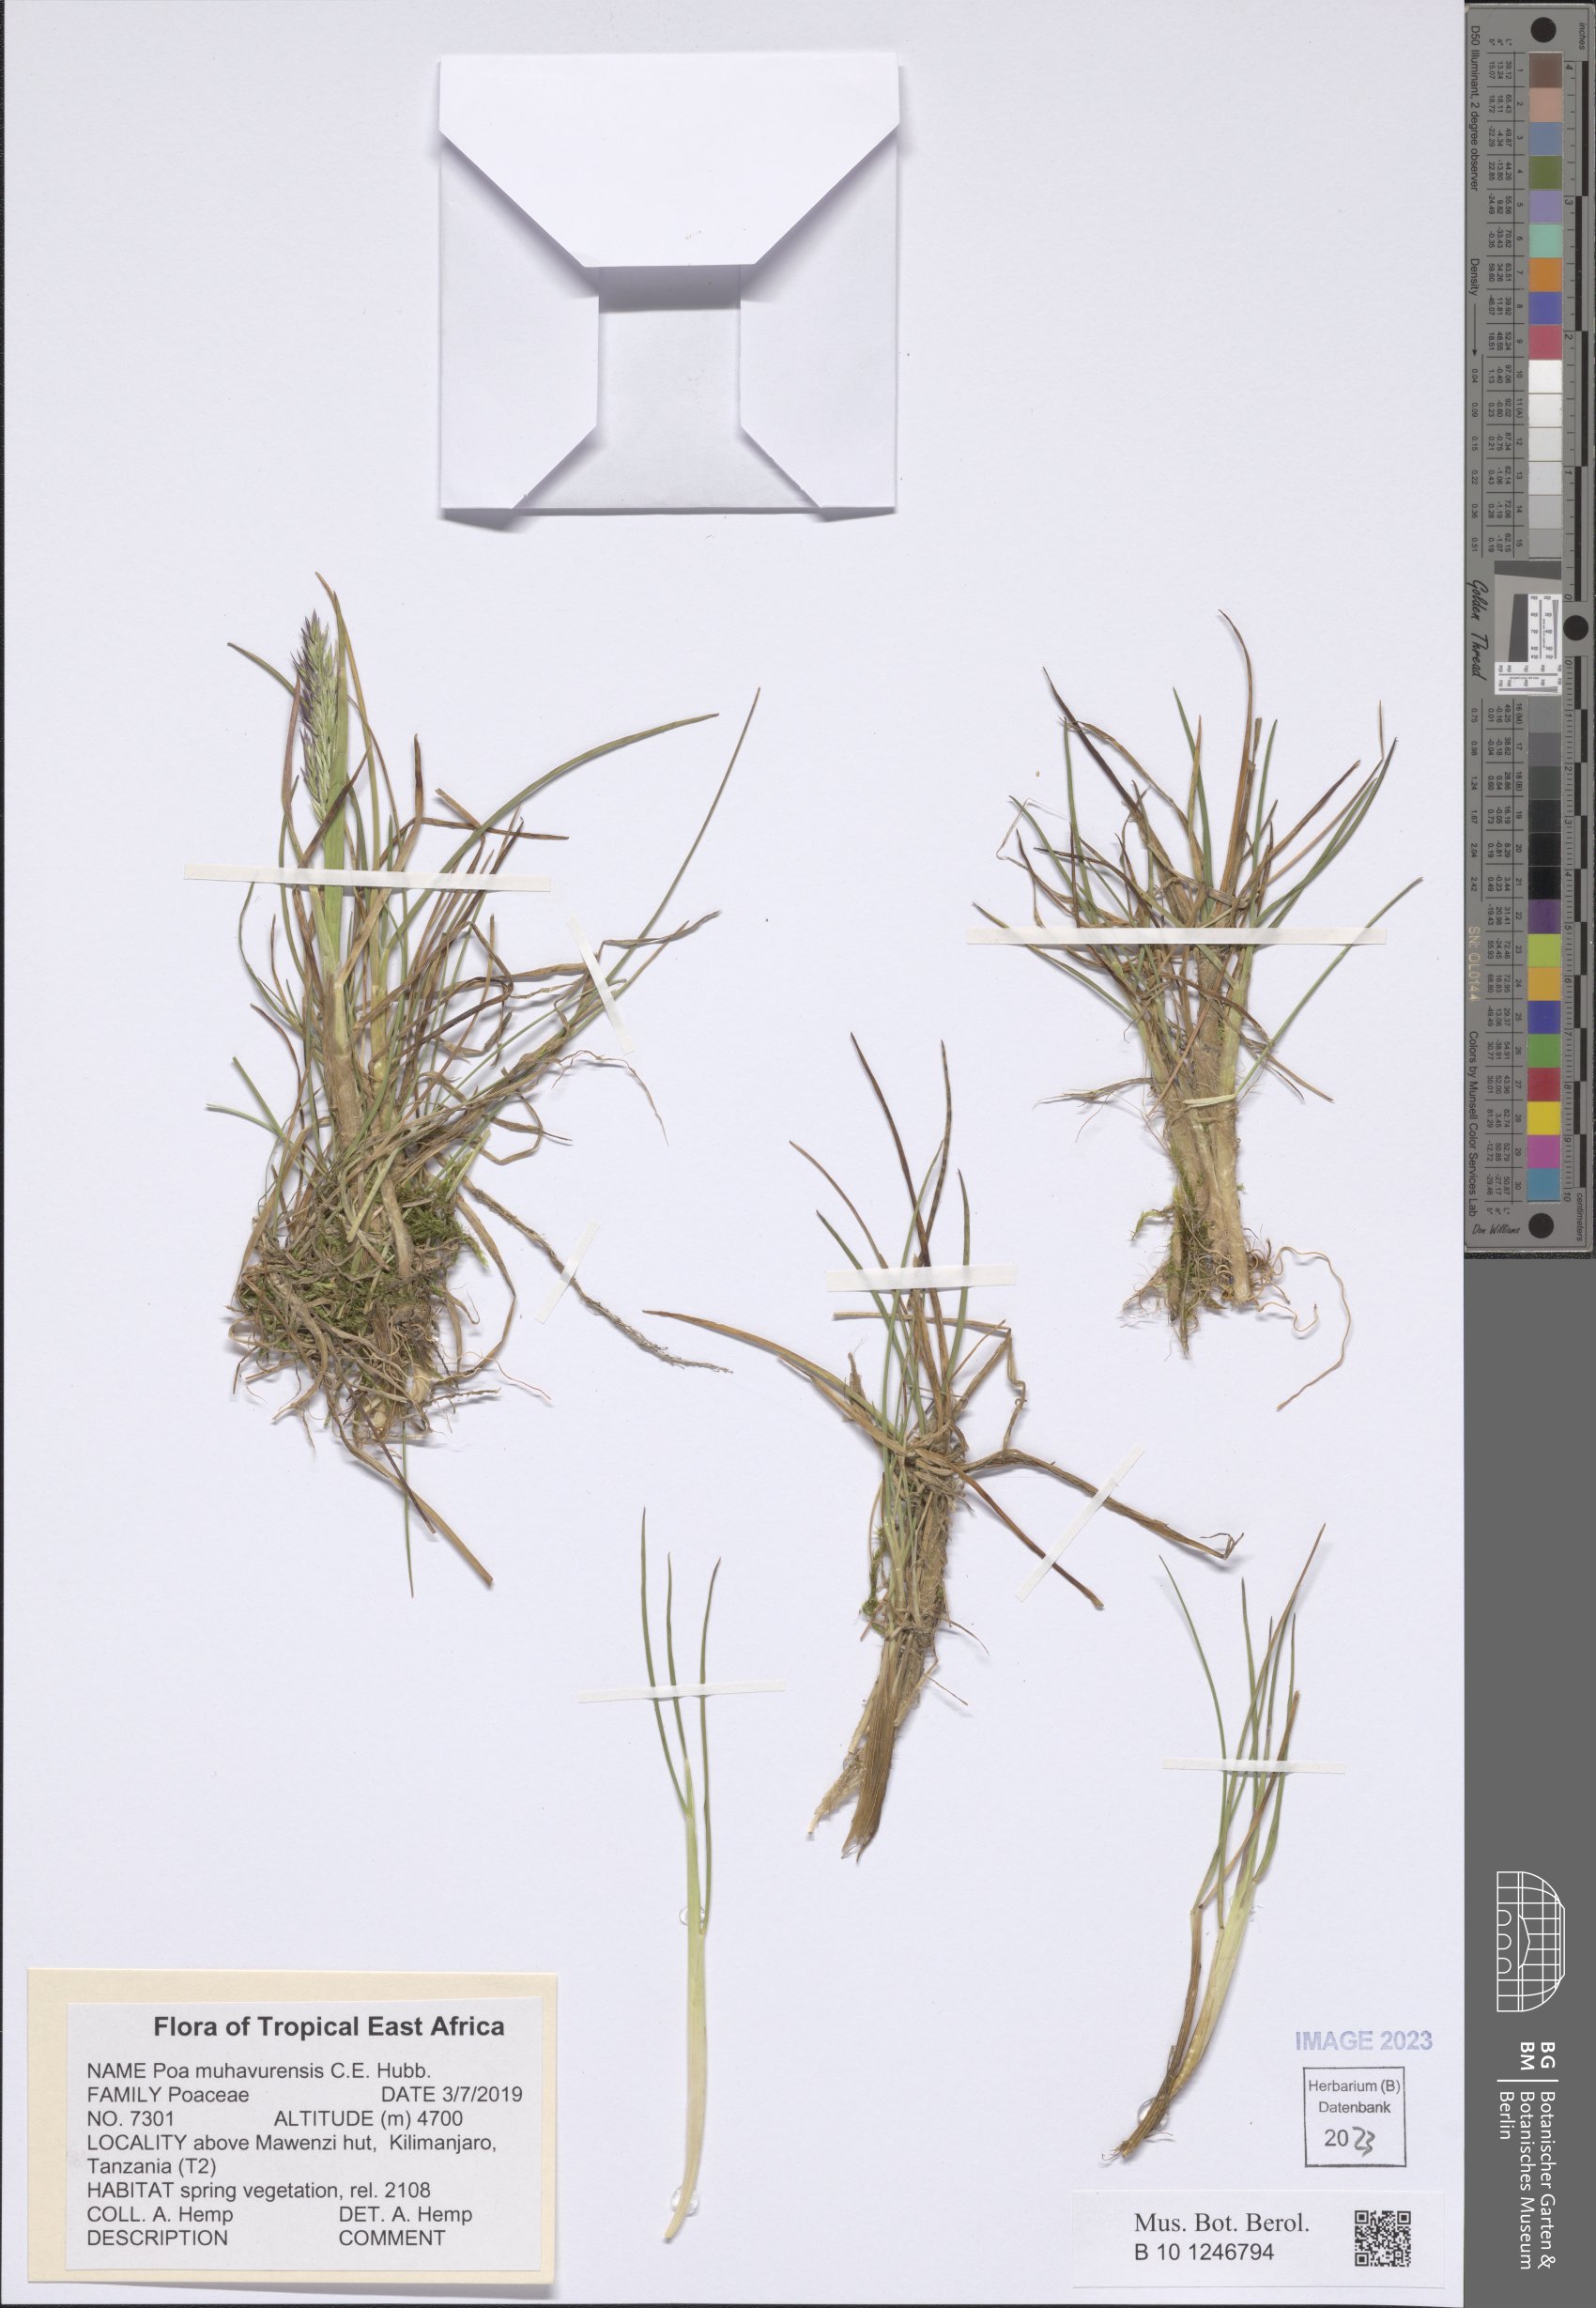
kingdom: Plantae
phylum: Tracheophyta
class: Liliopsida
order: Poales
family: Poaceae
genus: Poa
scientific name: Poa schimperiana
